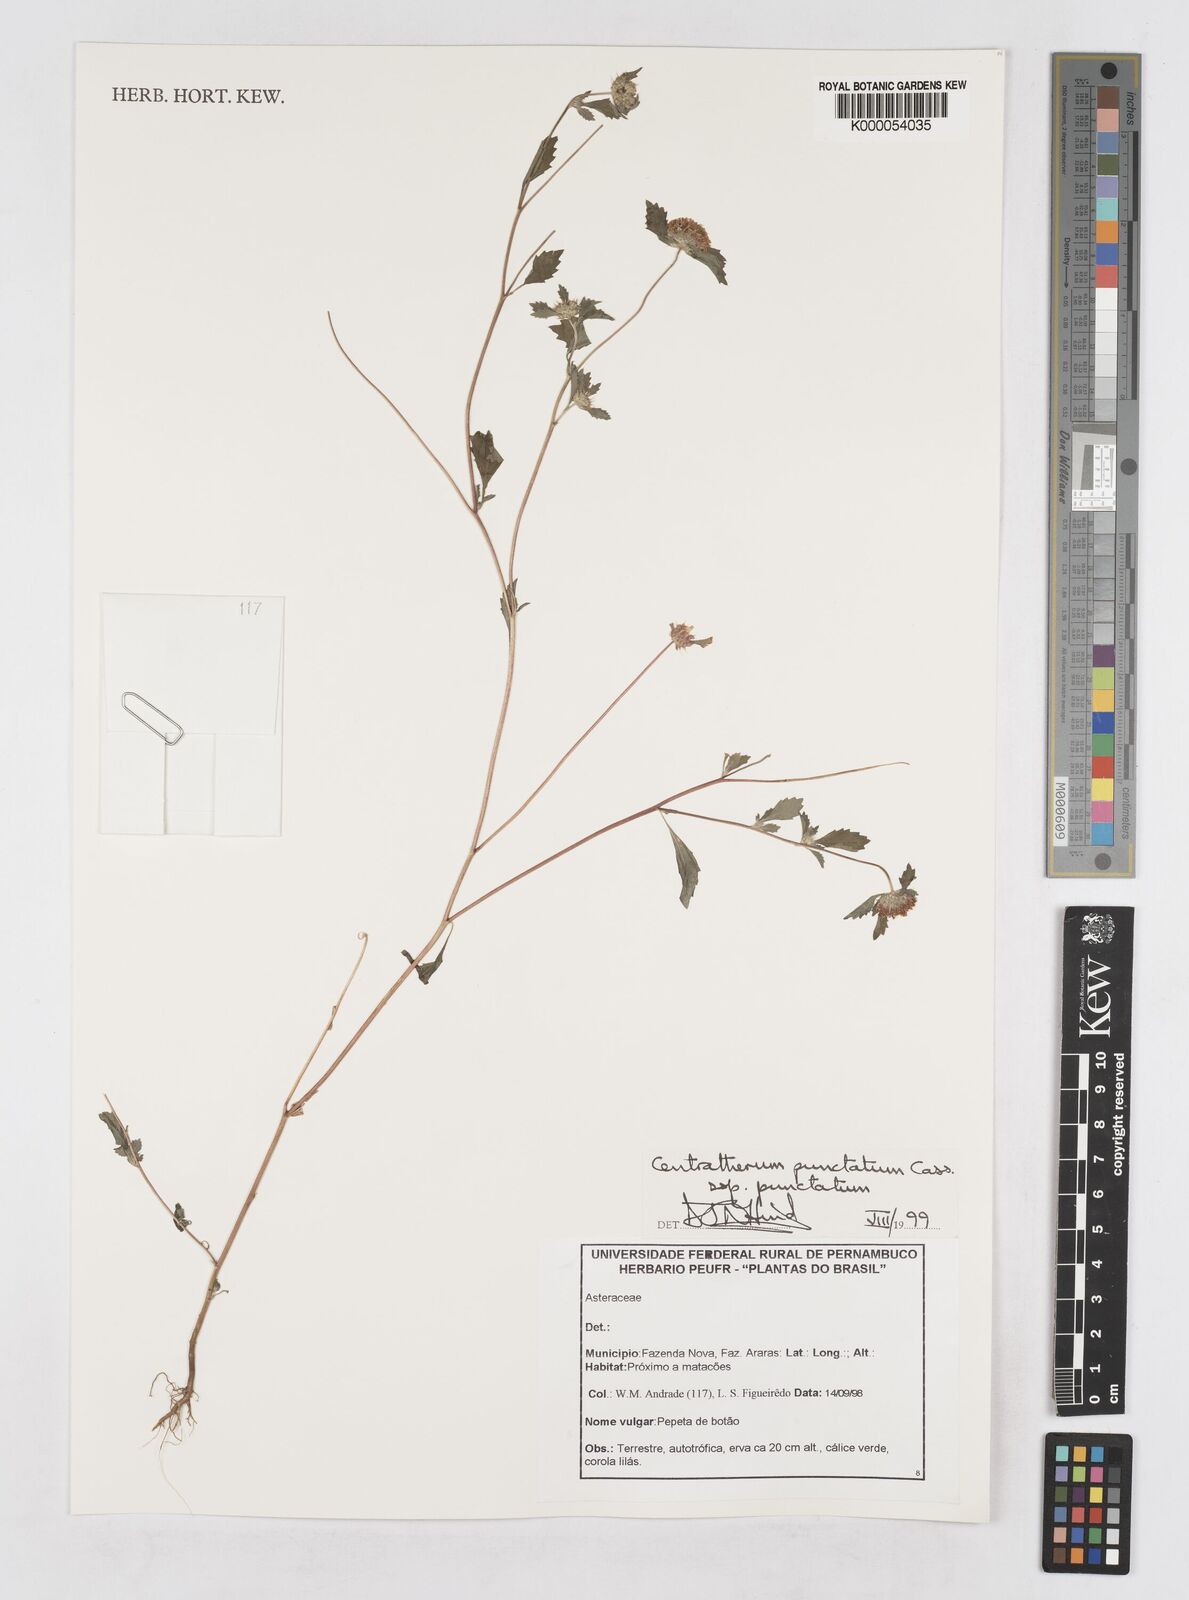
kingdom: Plantae
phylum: Tracheophyta
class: Magnoliopsida
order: Asterales
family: Asteraceae
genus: Centratherum
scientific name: Centratherum punctatum
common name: Larkdaisy
